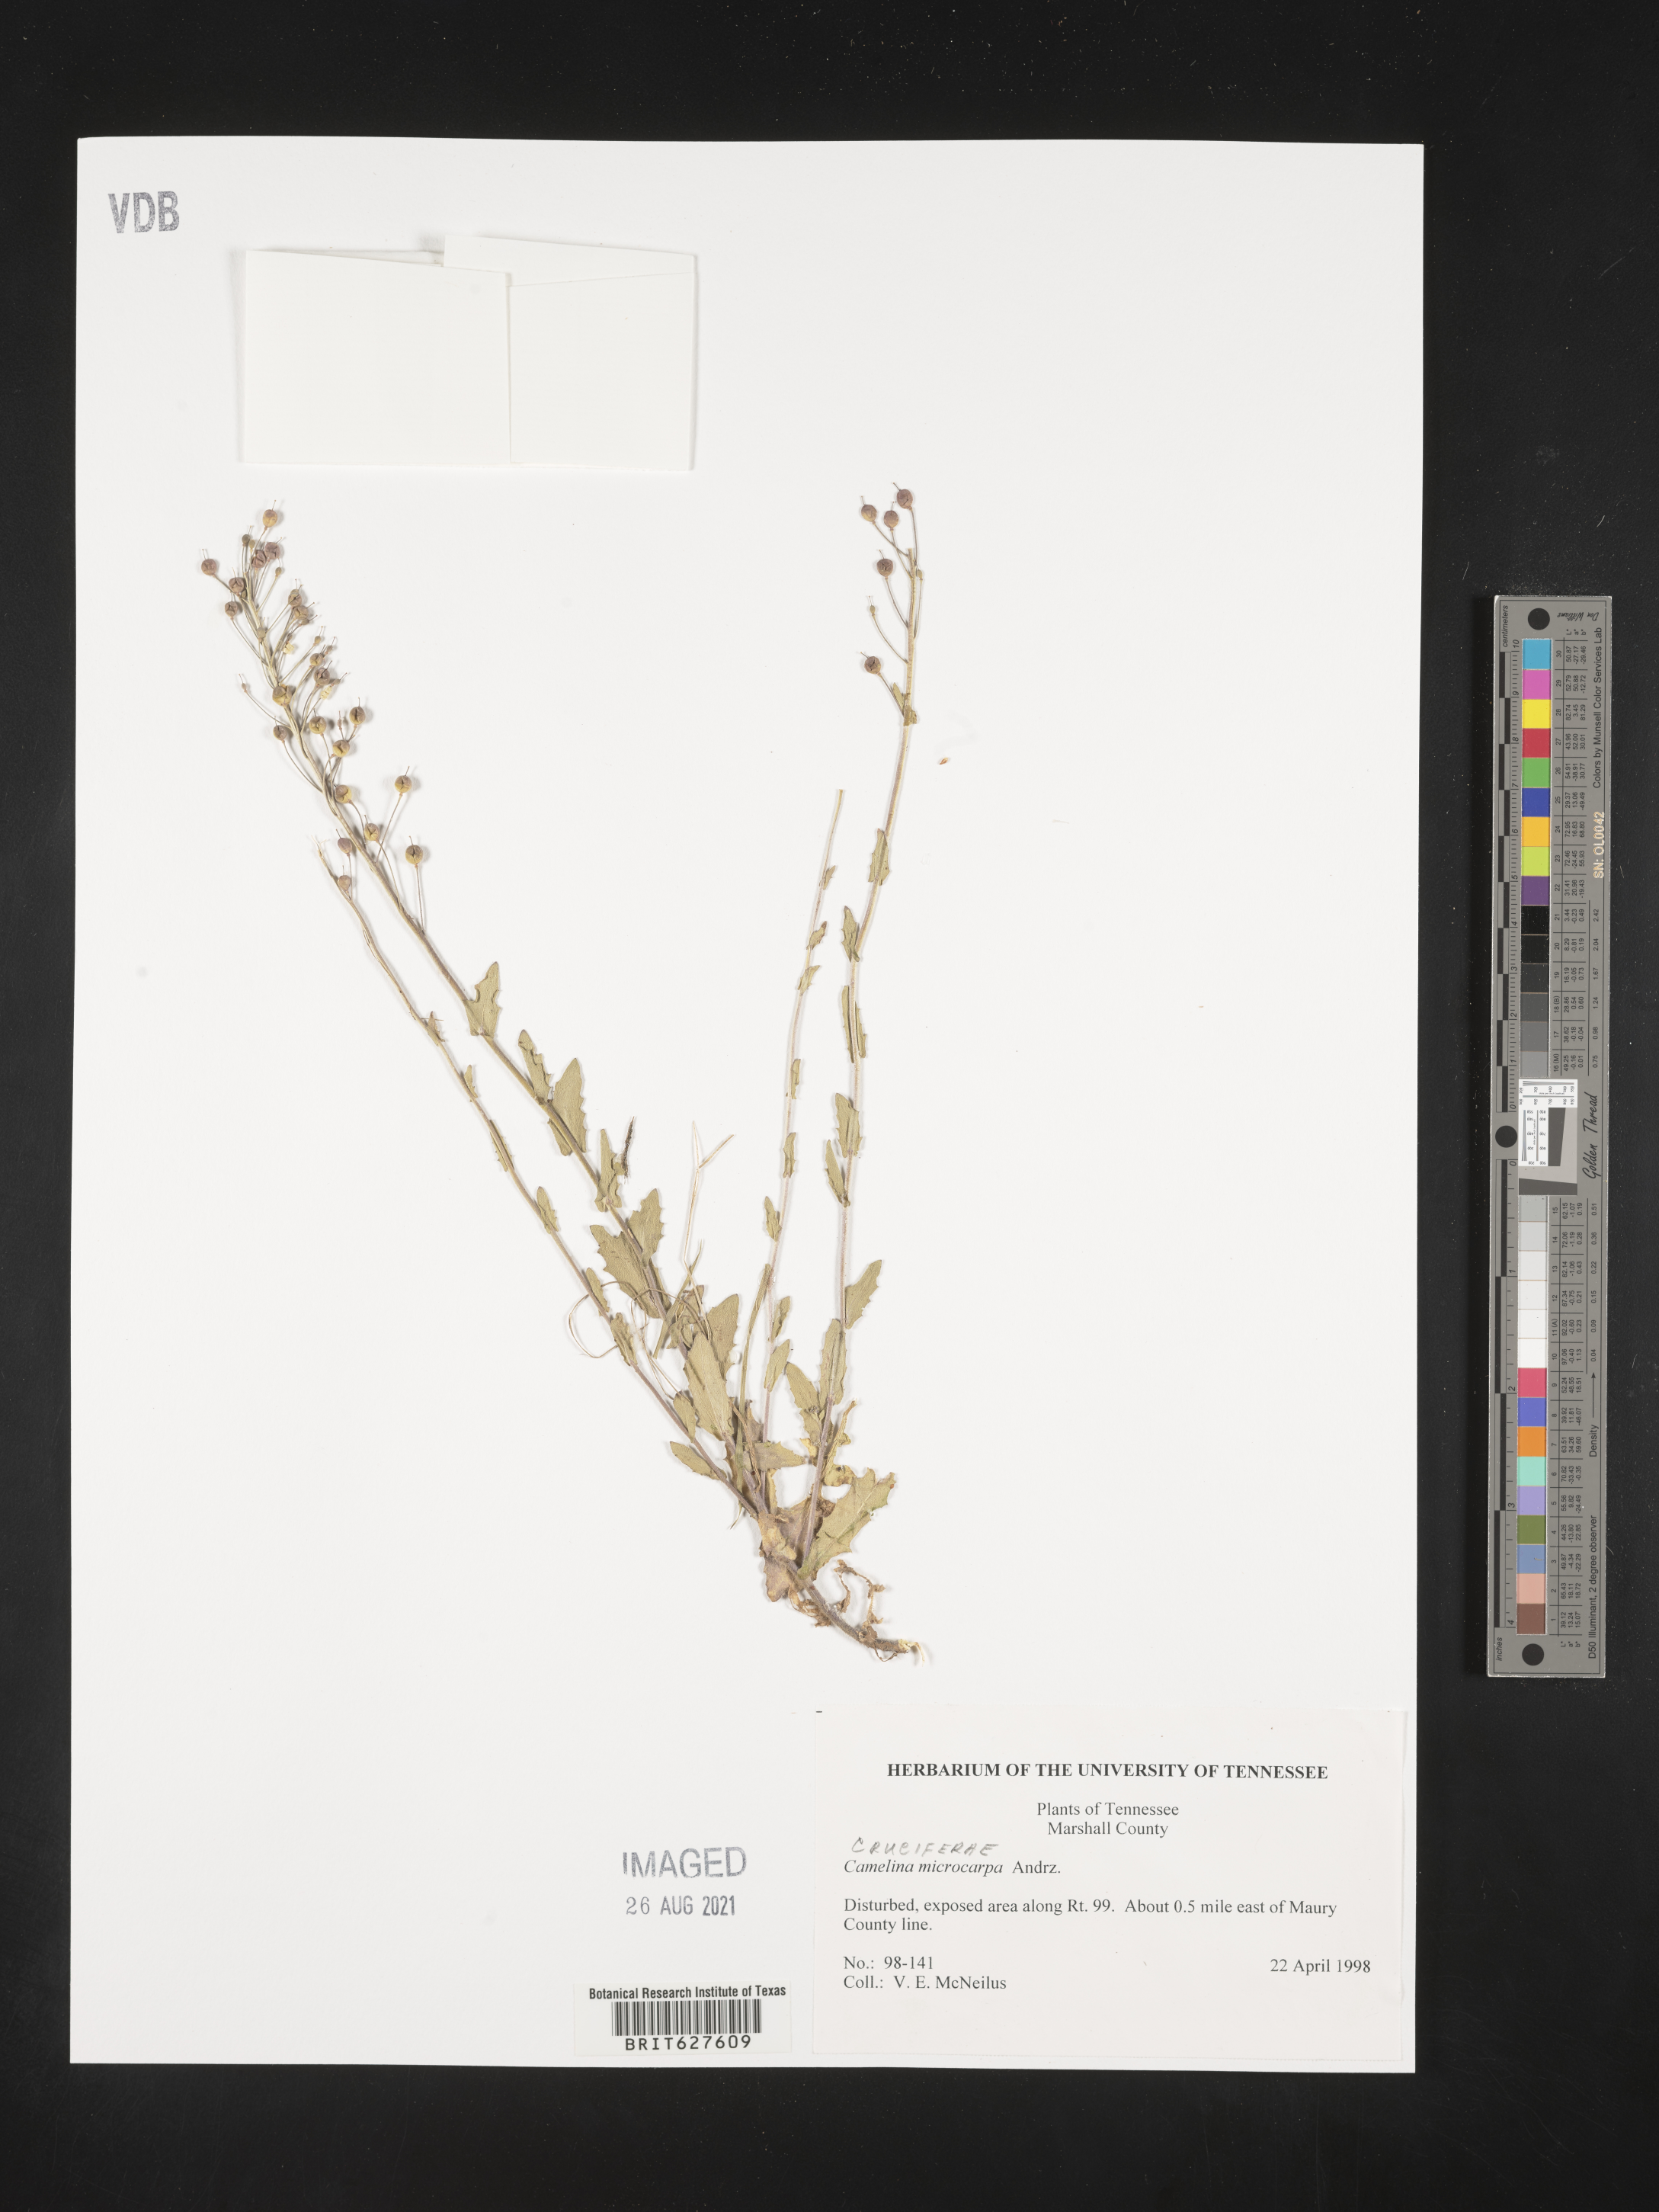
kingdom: Plantae
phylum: Tracheophyta
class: Magnoliopsida
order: Brassicales
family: Brassicaceae
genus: Camelina
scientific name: Camelina
